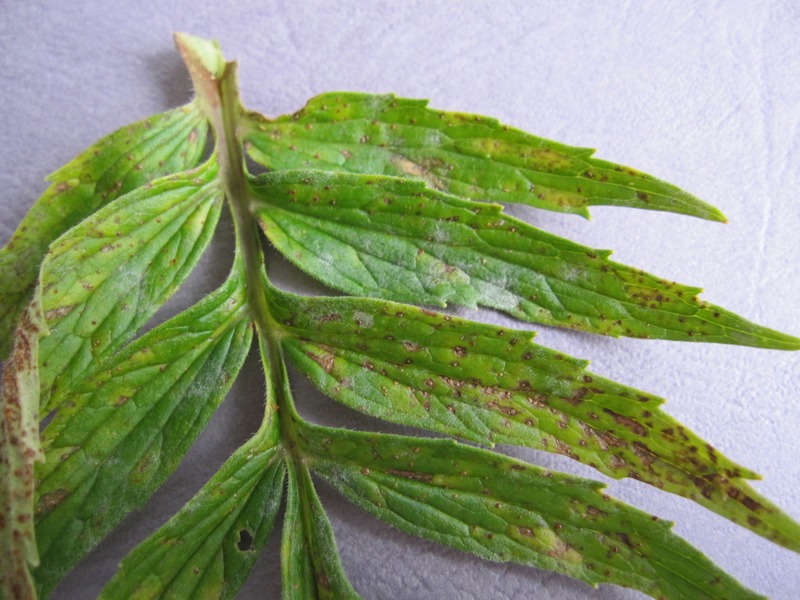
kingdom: Fungi
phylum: Ascomycota
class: Leotiomycetes
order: Helotiales
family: Erysiphaceae
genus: Golovinomyces
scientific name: Golovinomyces valerianae
